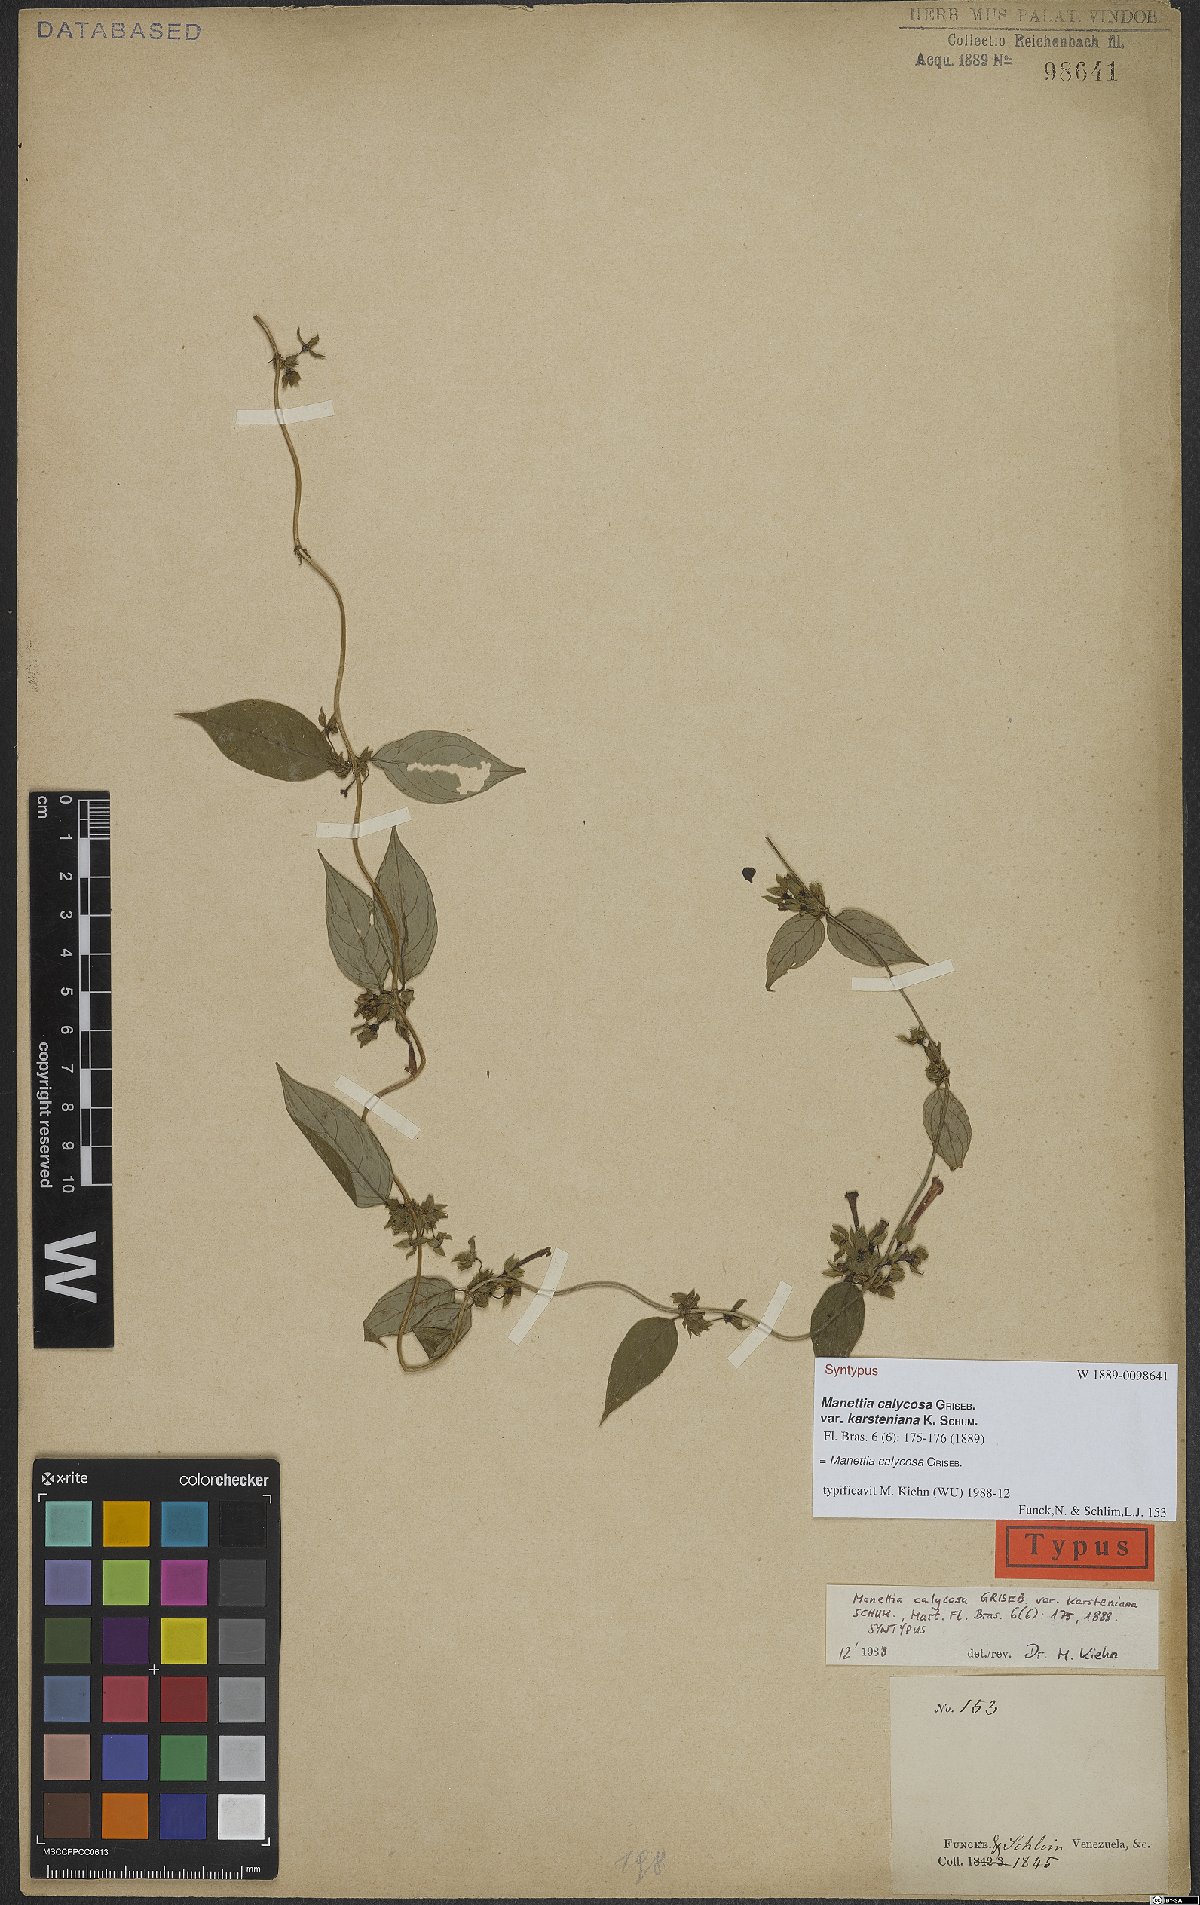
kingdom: Plantae
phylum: Tracheophyta
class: Magnoliopsida
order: Gentianales
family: Rubiaceae
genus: Manettia
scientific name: Manettia calycosa
